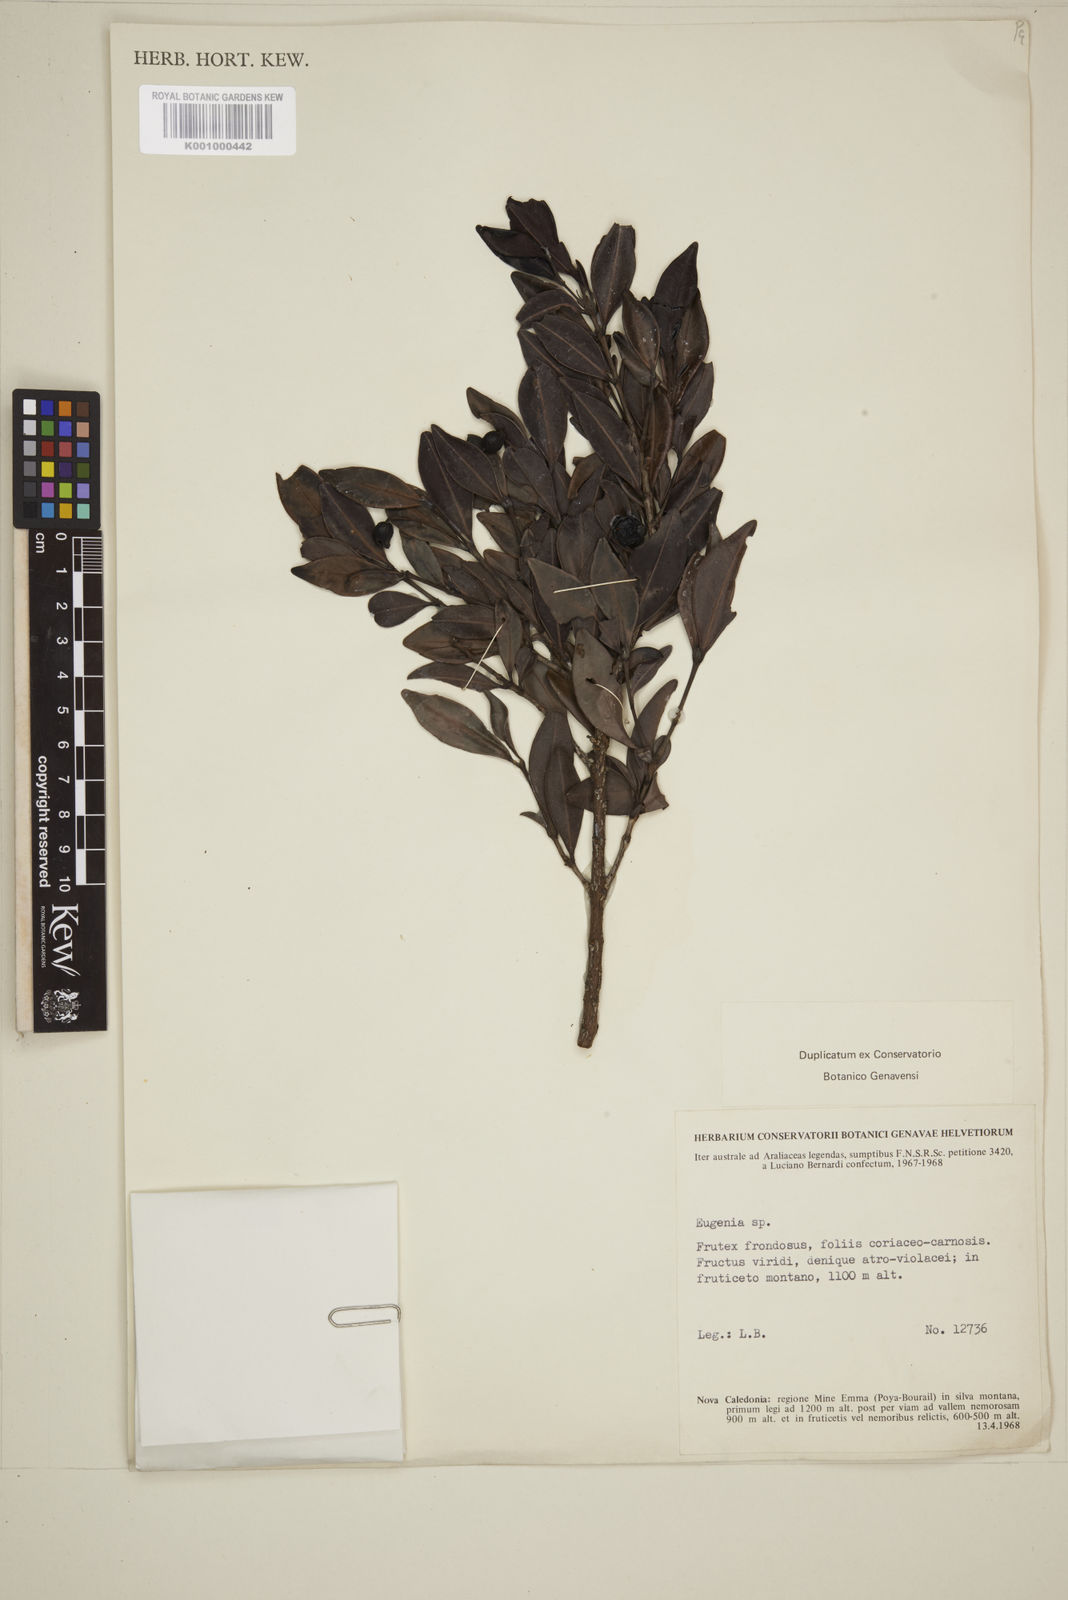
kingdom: Plantae
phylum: Tracheophyta
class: Magnoliopsida
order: Myrtales
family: Myrtaceae
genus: Eugenia
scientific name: Eugenia
